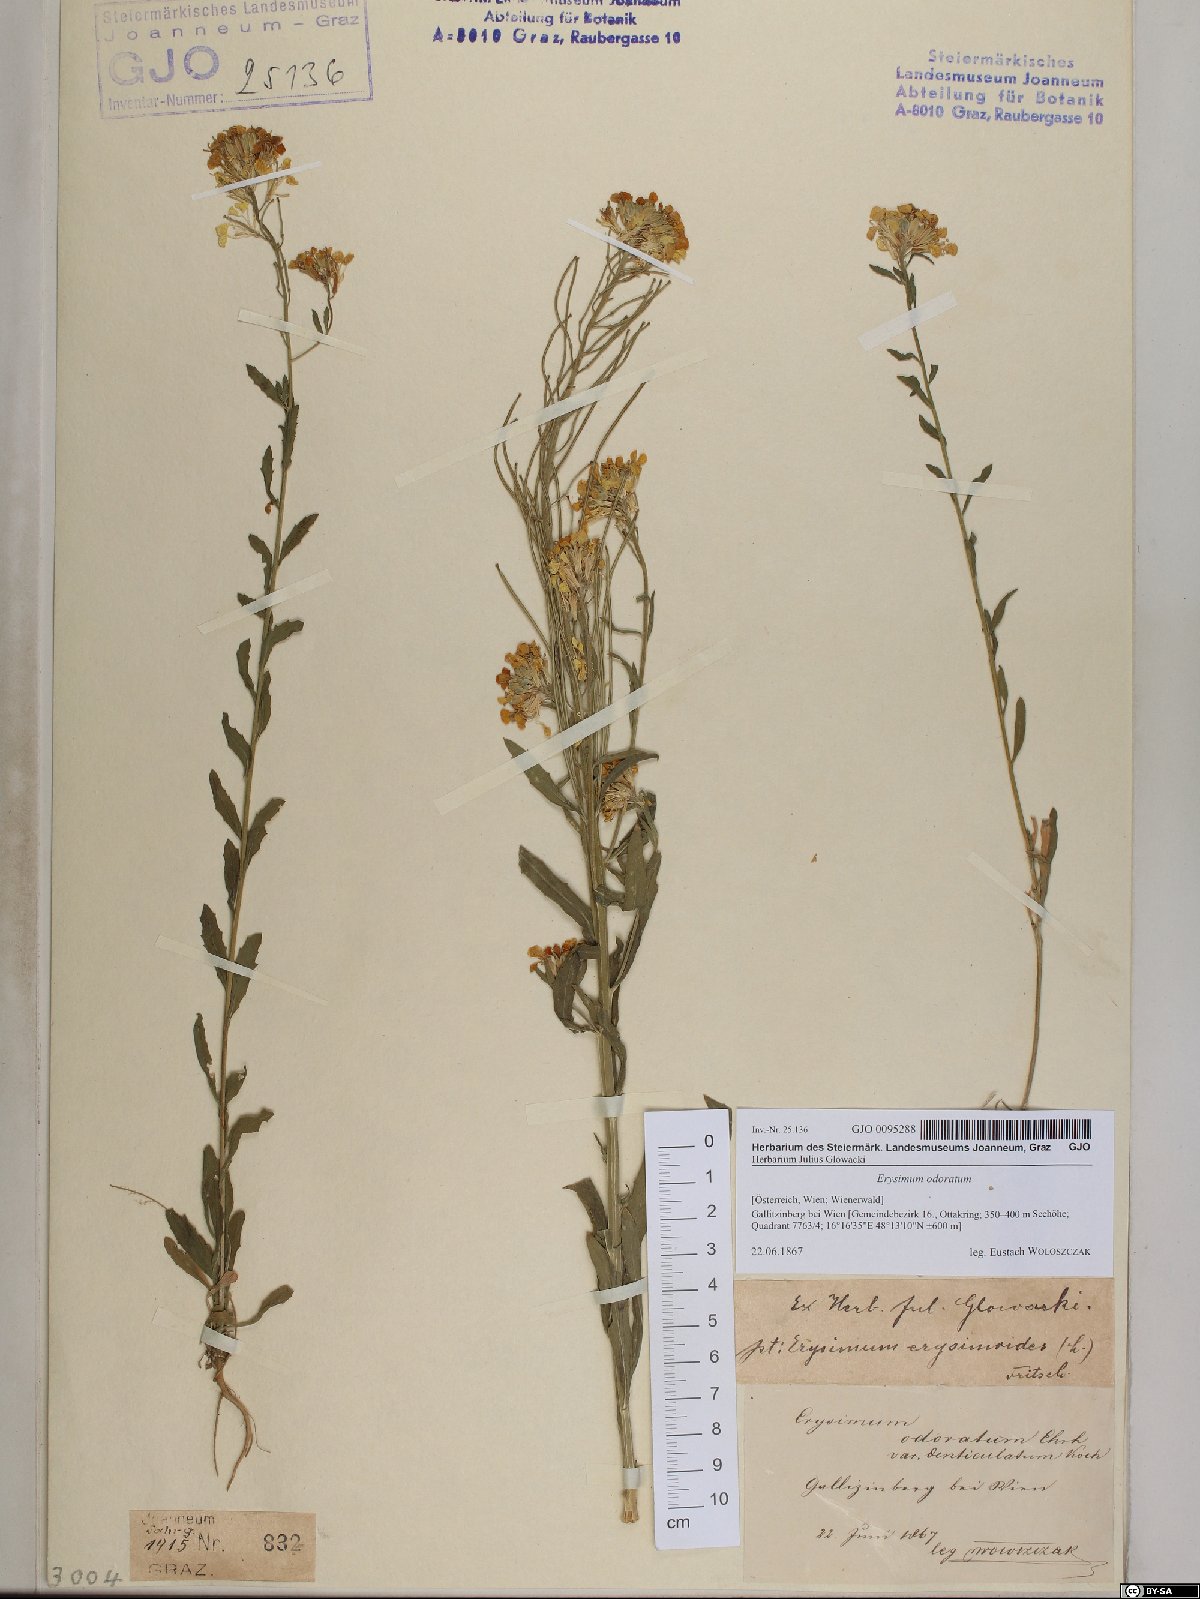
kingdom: Plantae
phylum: Tracheophyta
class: Magnoliopsida
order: Brassicales
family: Brassicaceae
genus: Erysimum
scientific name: Erysimum odoratum
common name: Smelly wallflower
